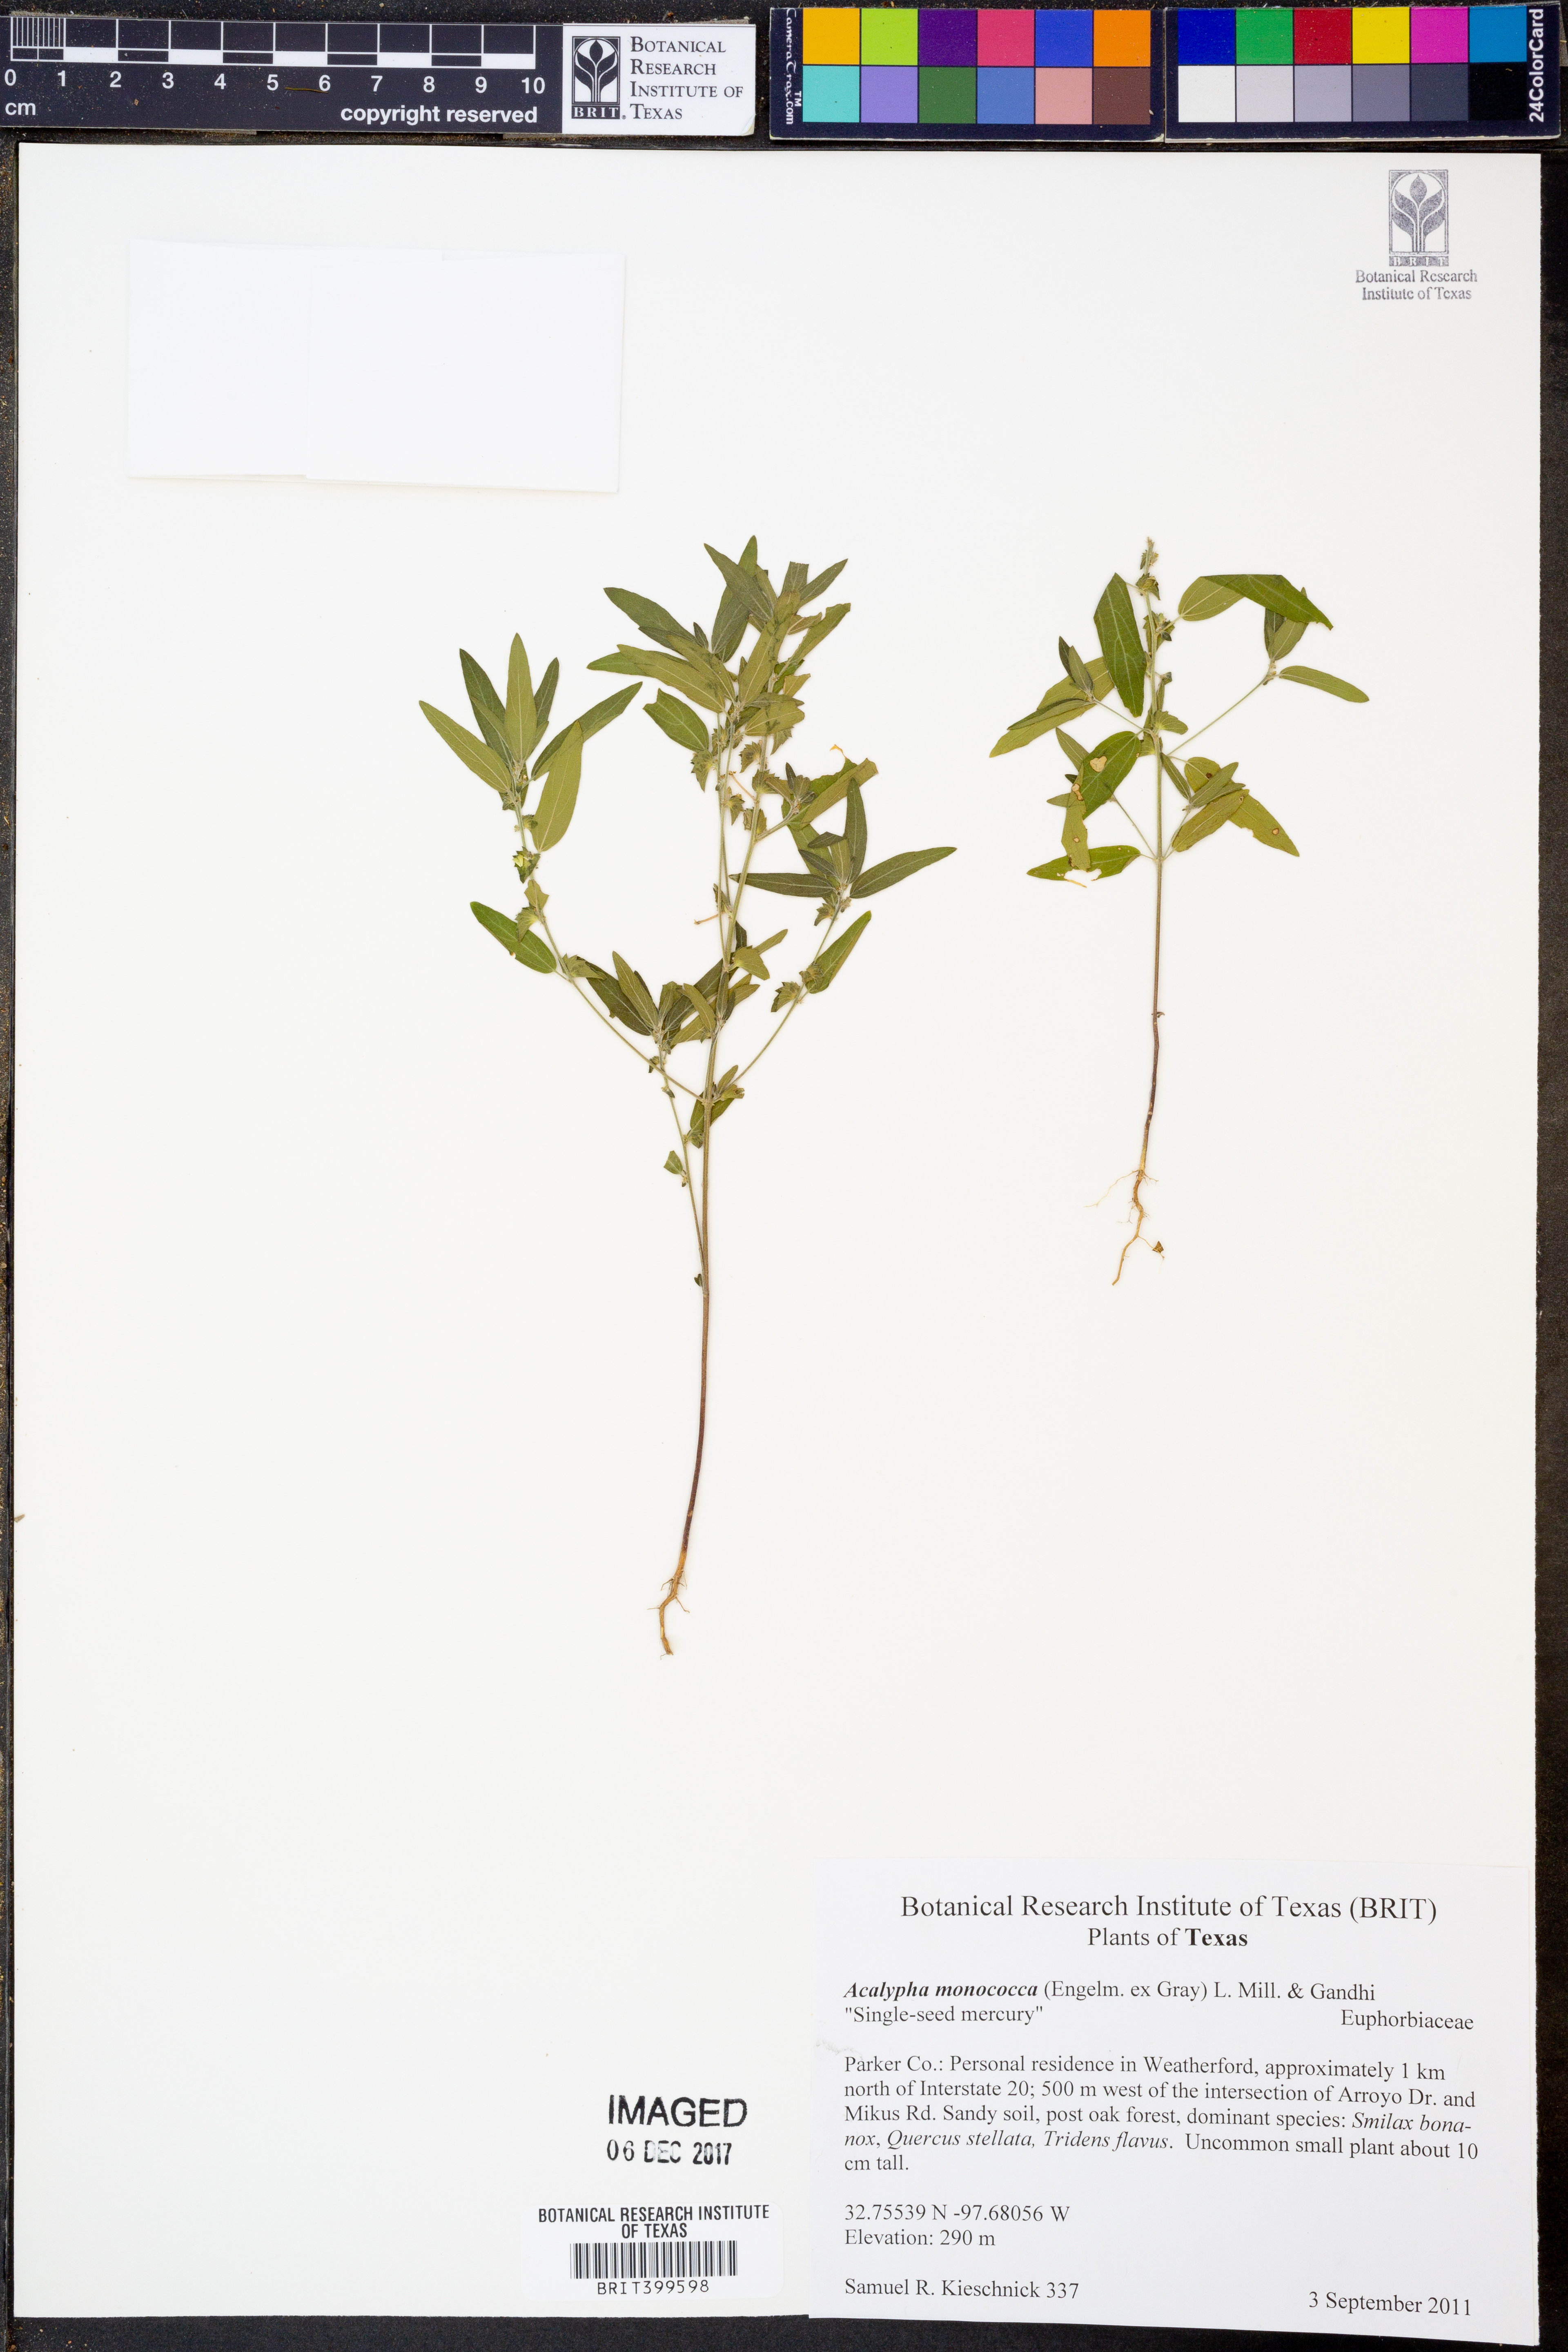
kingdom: Plantae
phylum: Tracheophyta
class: Magnoliopsida
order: Malpighiales
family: Euphorbiaceae
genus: Acalypha
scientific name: Acalypha monococca
